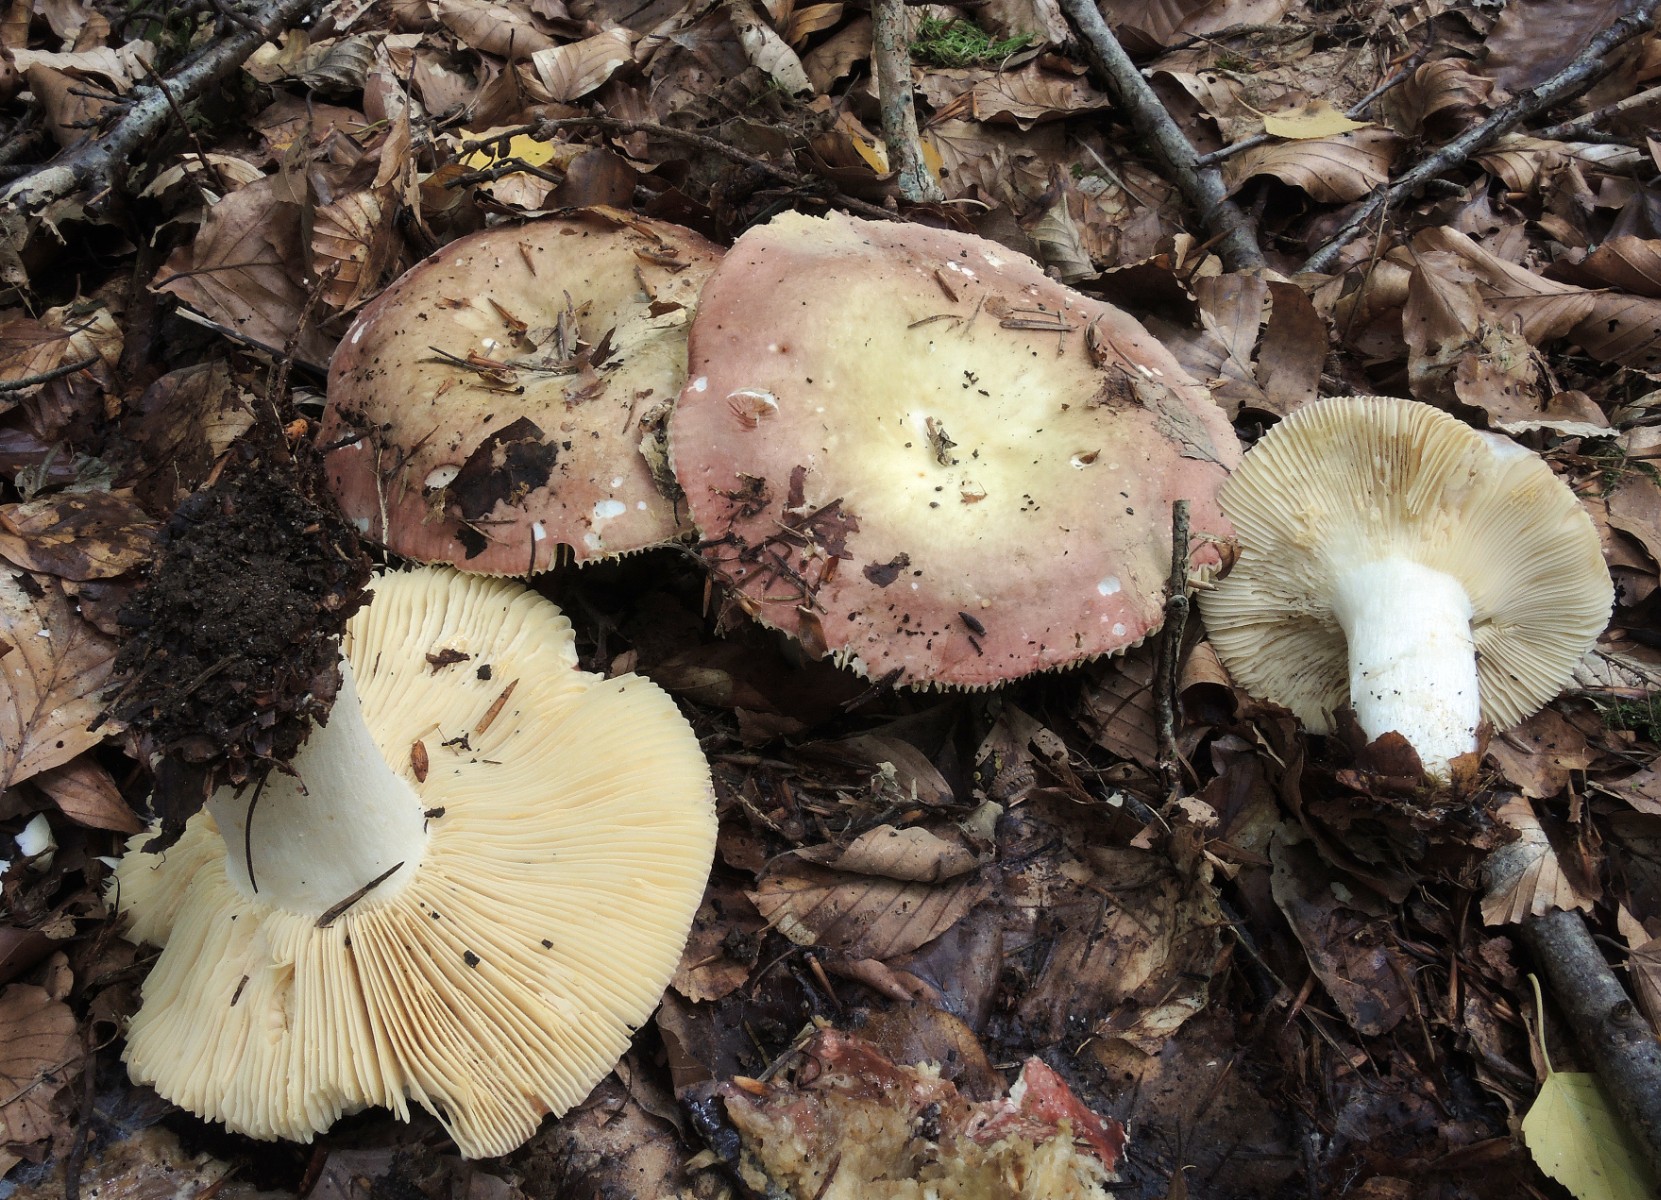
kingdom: Fungi
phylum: Basidiomycota
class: Agaricomycetes
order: Russulales
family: Russulaceae
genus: Russula
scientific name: Russula curtipes
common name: kortstokket skørhat
